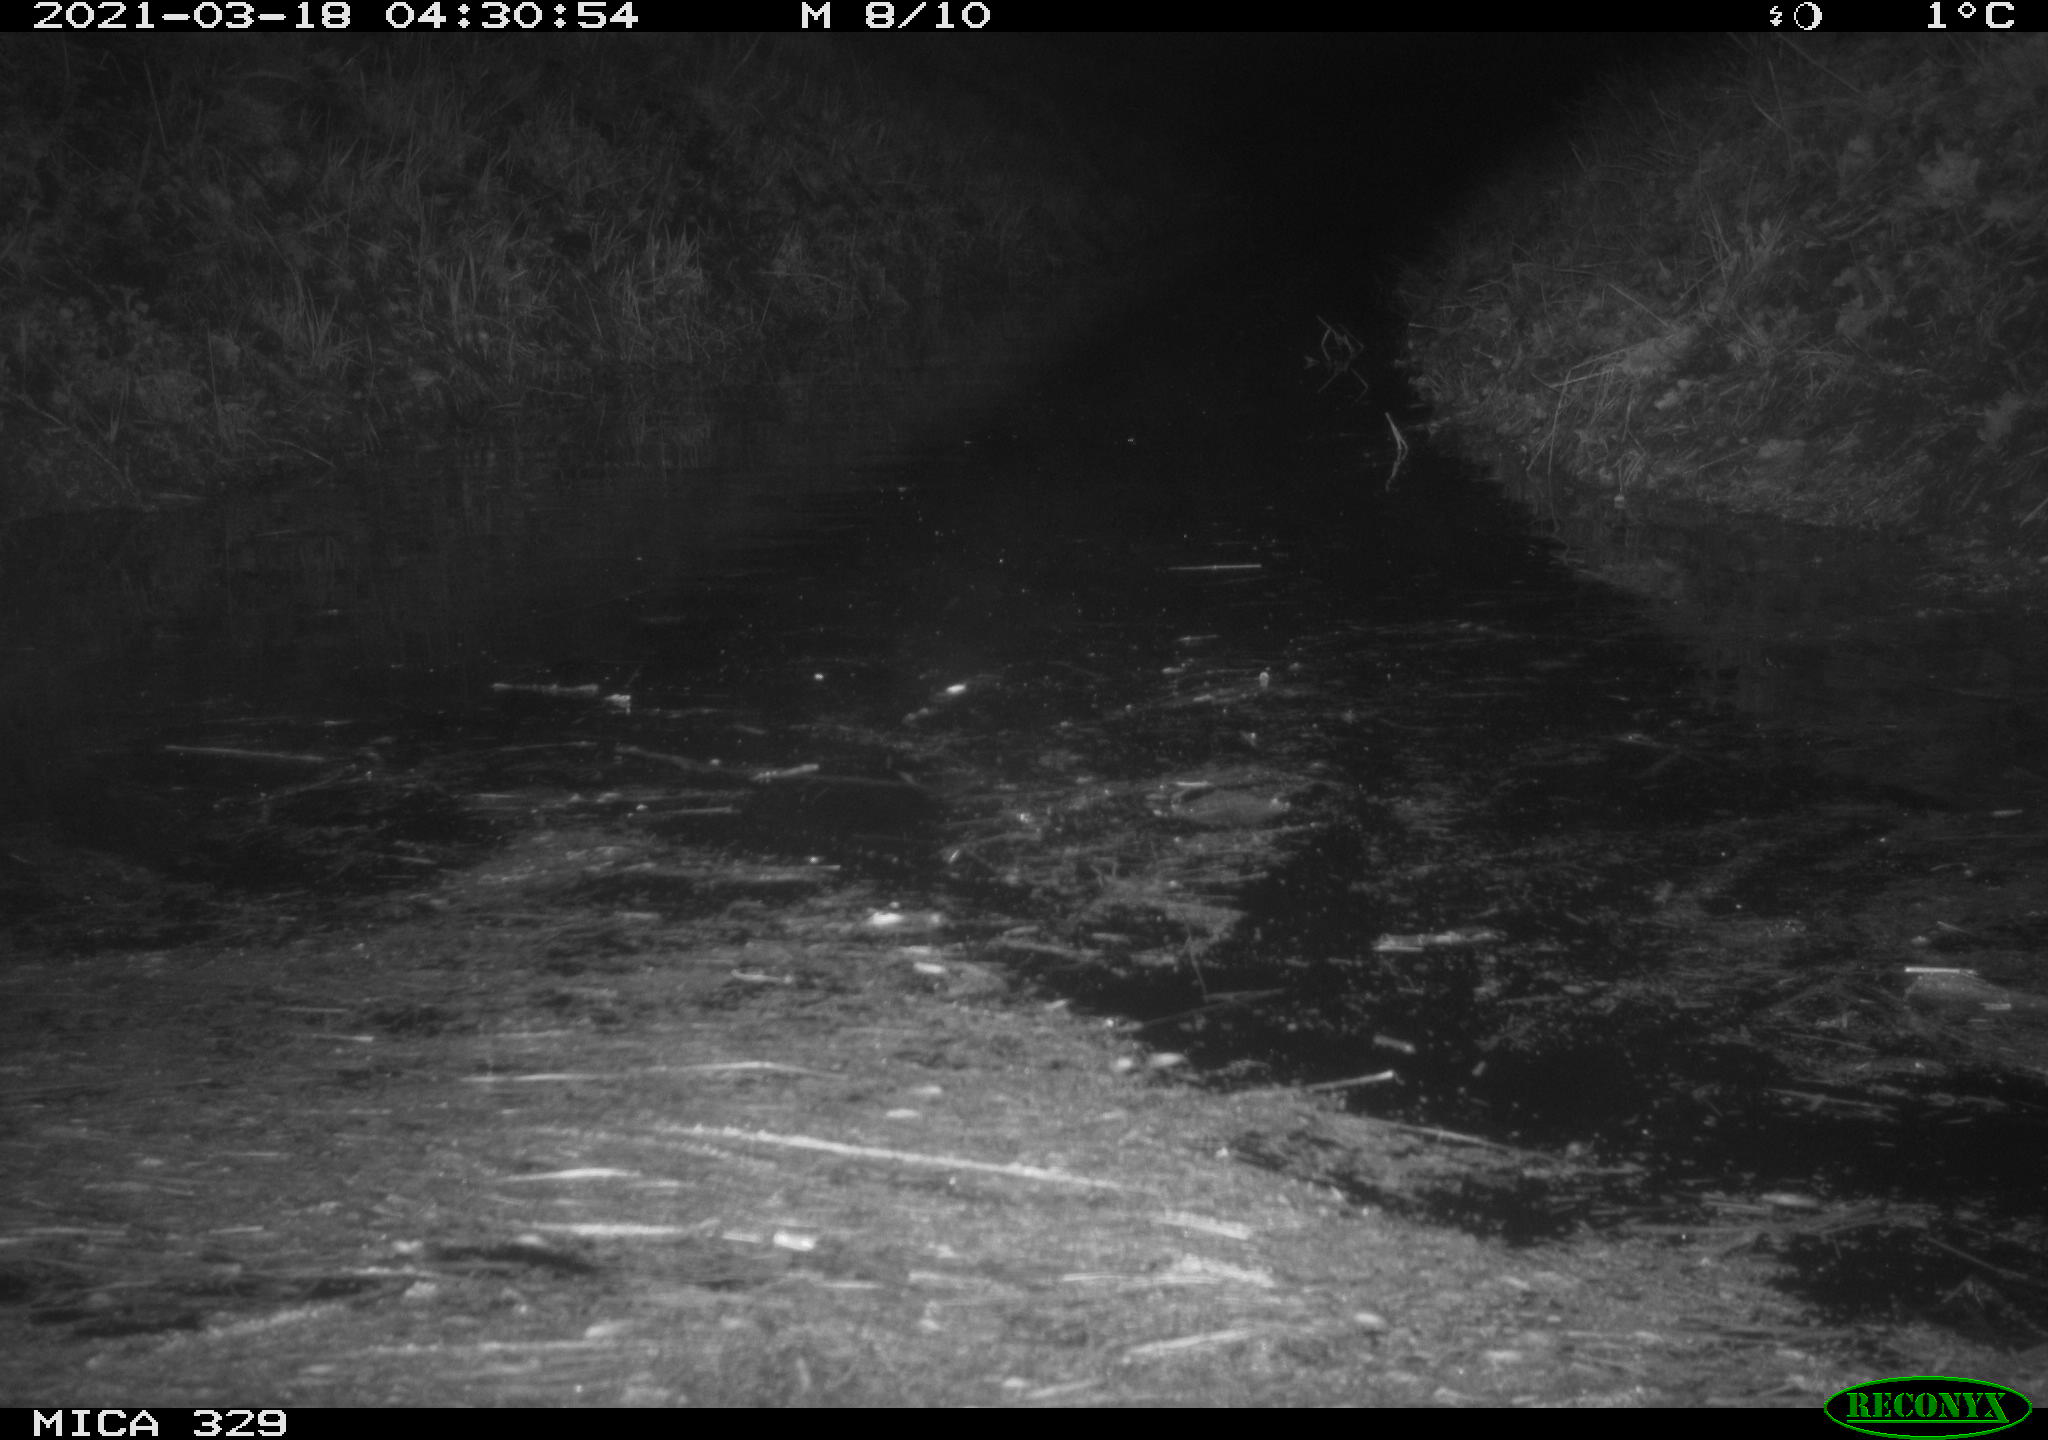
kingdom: Animalia
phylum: Chordata
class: Mammalia
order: Rodentia
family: Cricetidae
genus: Ondatra
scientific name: Ondatra zibethicus
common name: Muskrat
